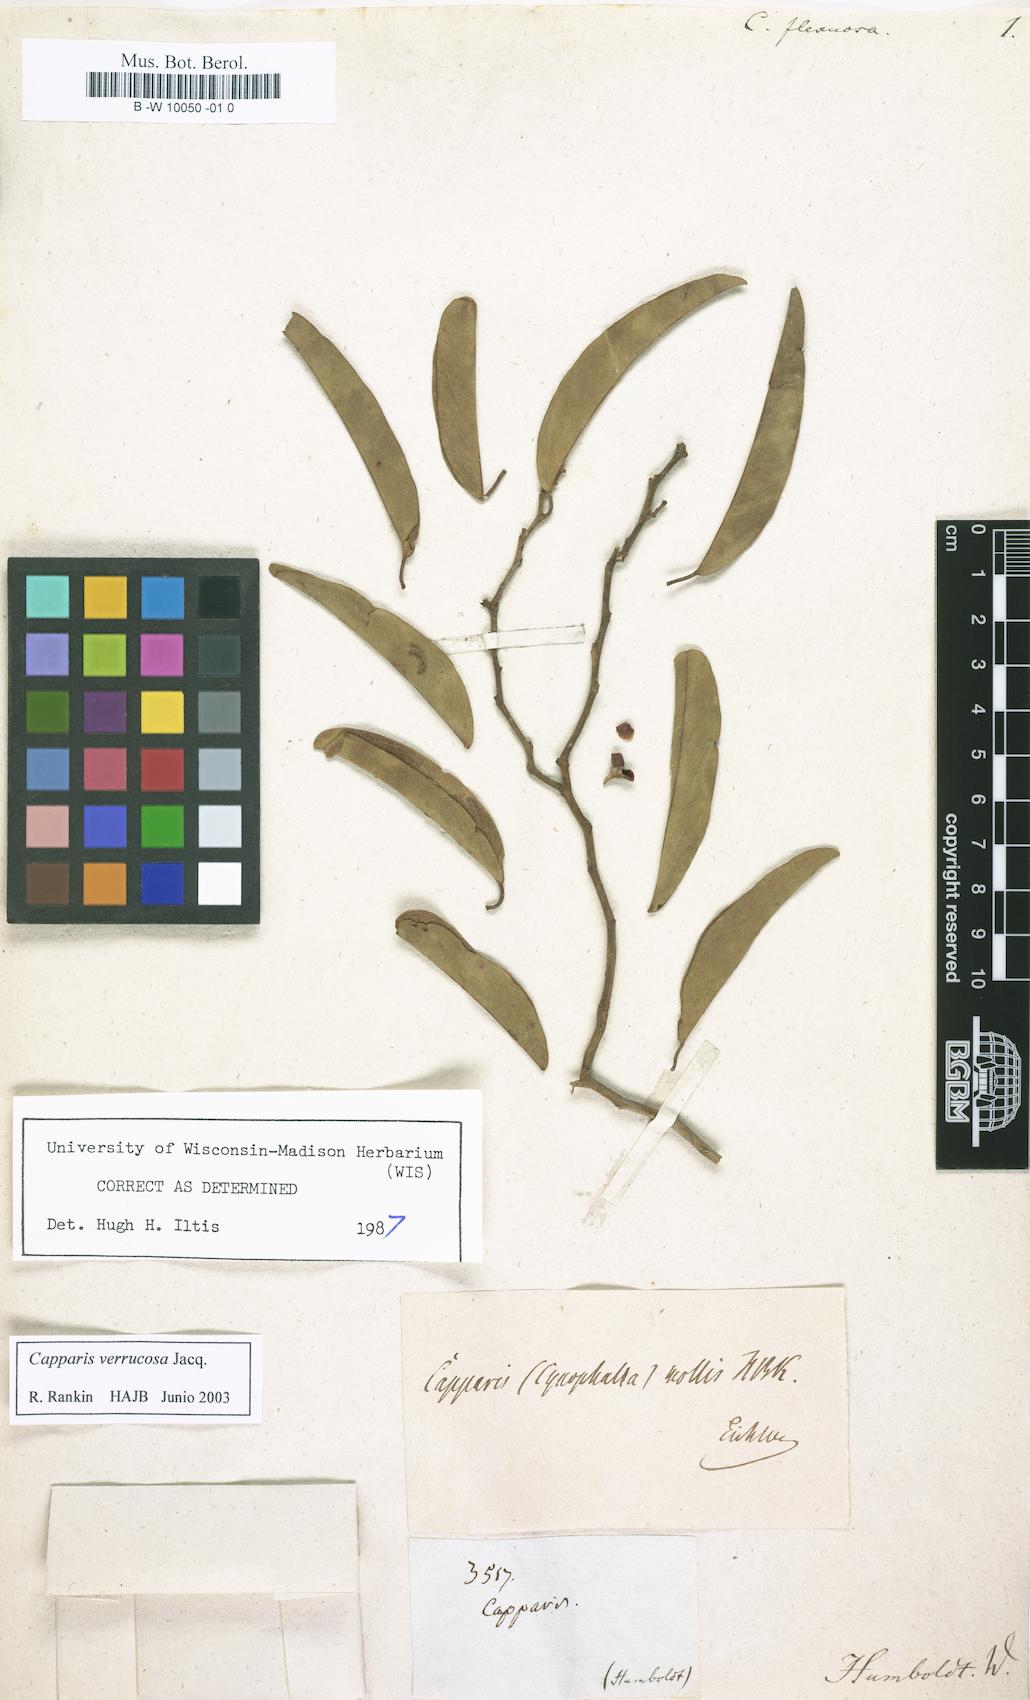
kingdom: Plantae
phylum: Tracheophyta
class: Magnoliopsida
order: Brassicales
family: Capparaceae
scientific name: Capparaceae
